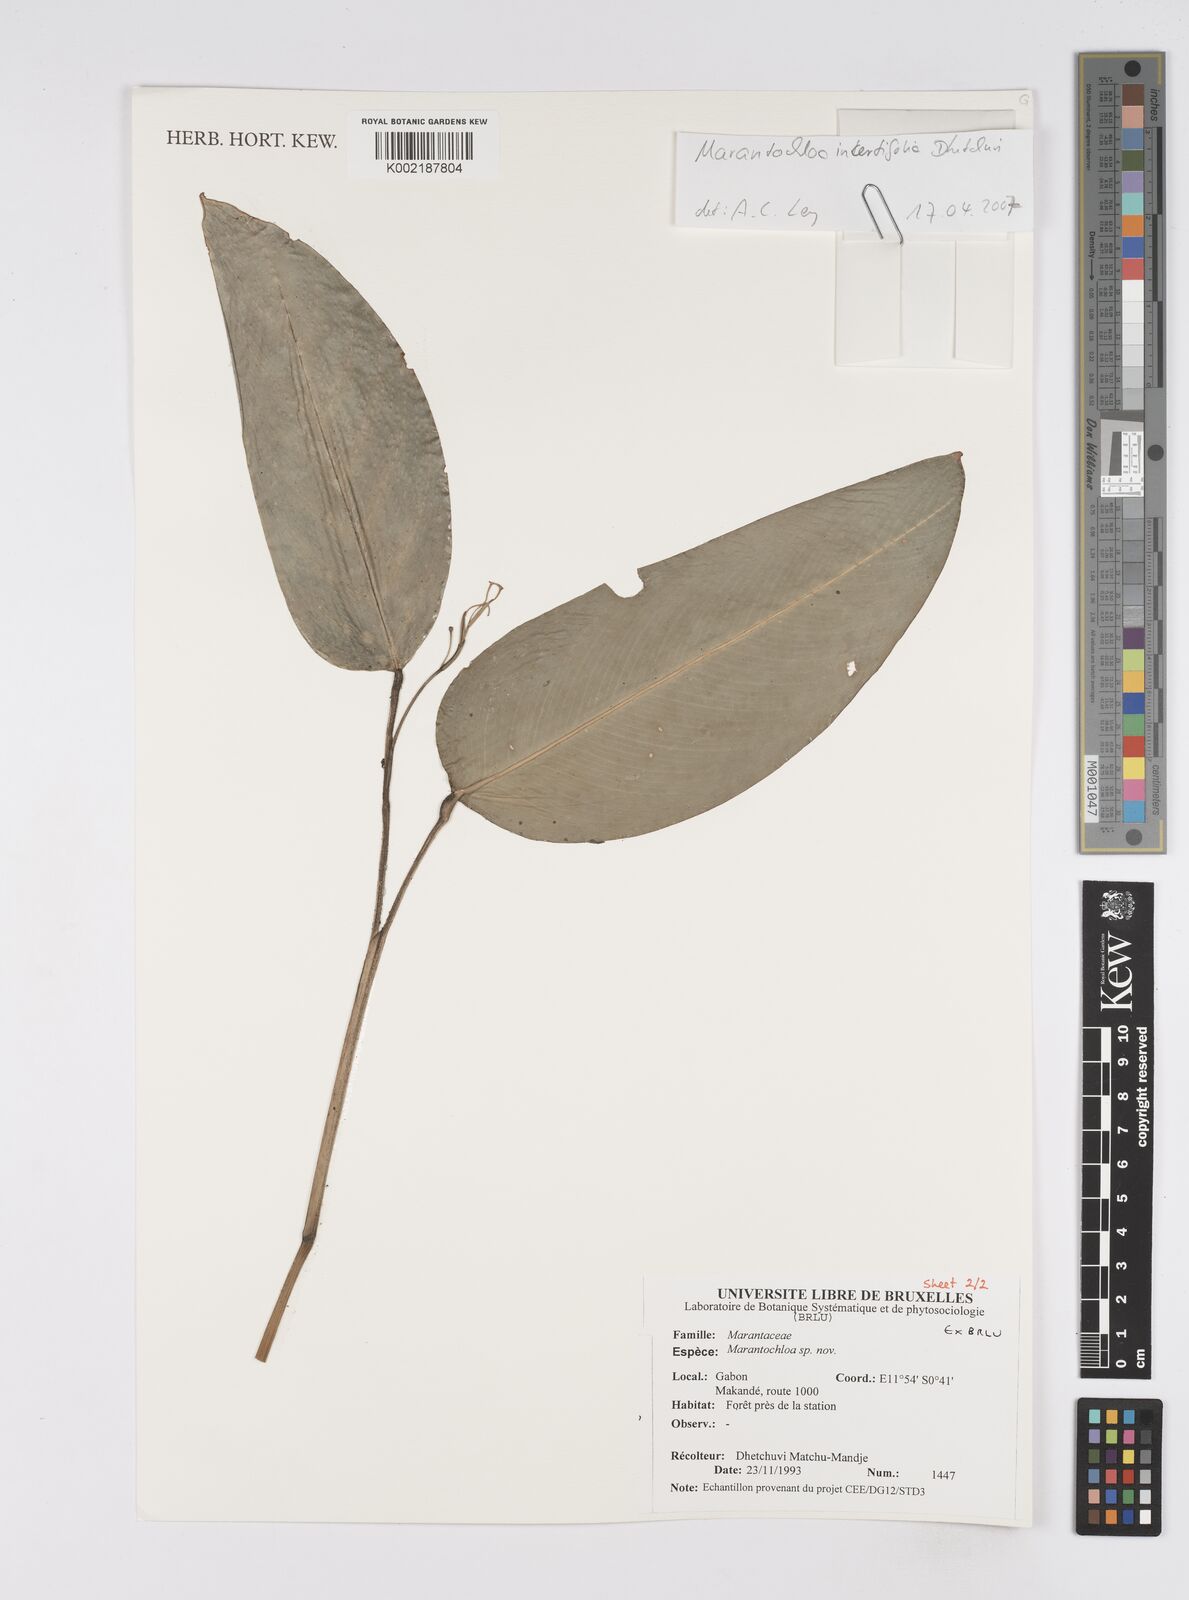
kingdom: Plantae
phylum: Tracheophyta
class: Liliopsida
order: Zingiberales
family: Marantaceae
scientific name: Marantaceae
